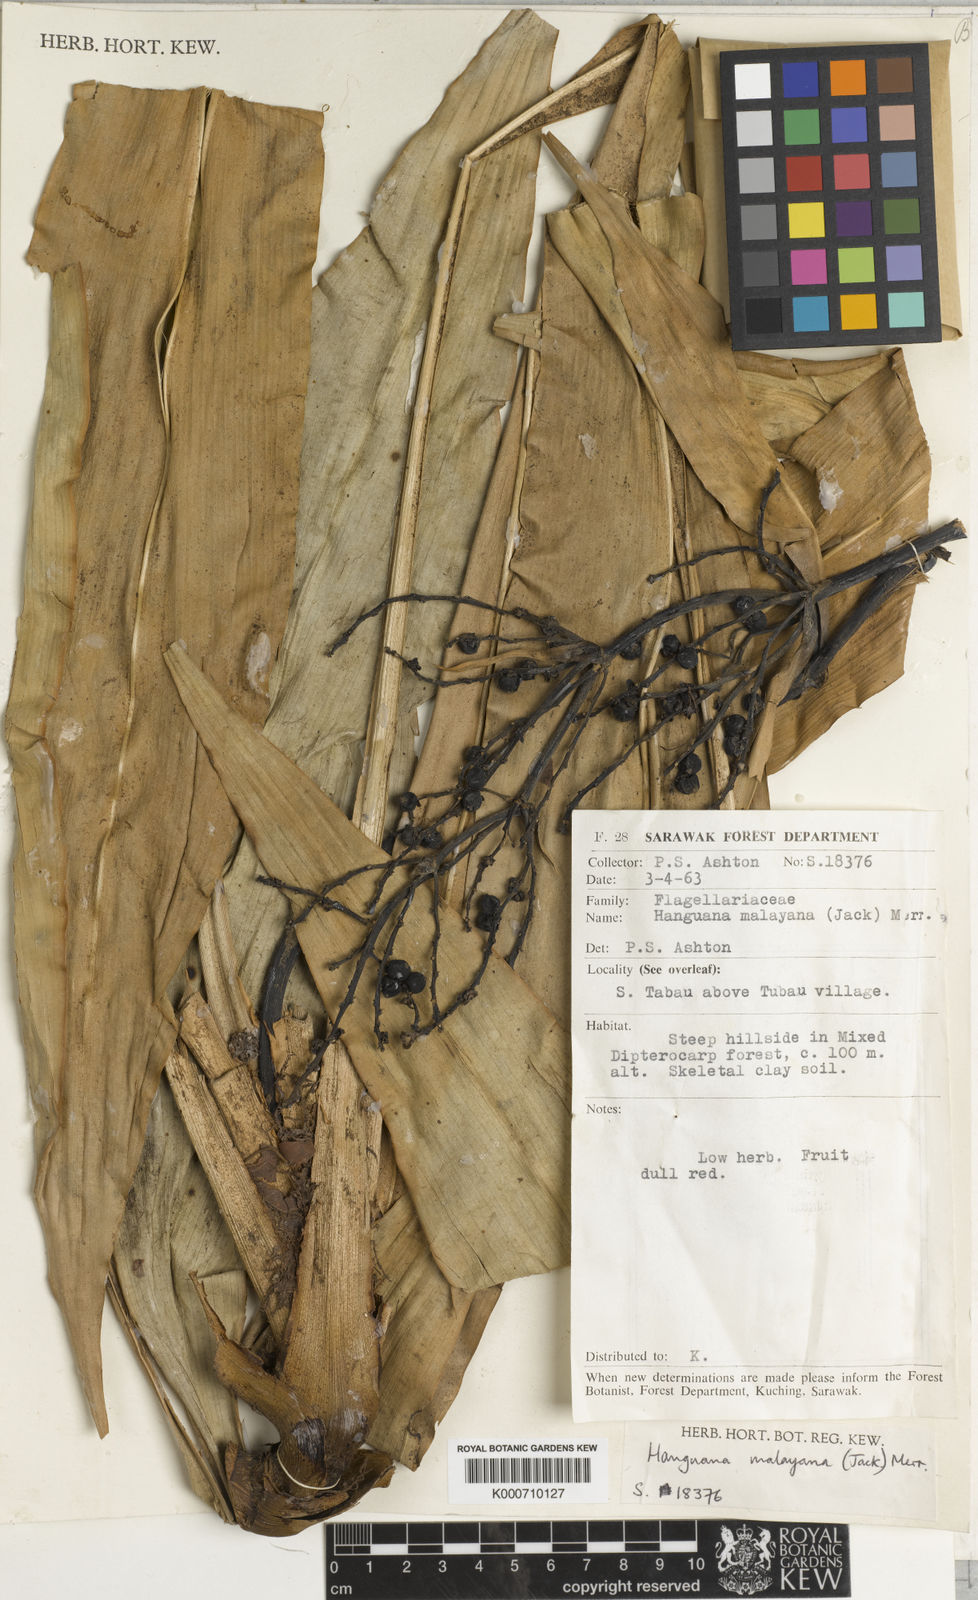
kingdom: Plantae
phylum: Tracheophyta
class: Liliopsida
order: Commelinales
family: Hanguanaceae
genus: Hanguana
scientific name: Hanguana malayana
